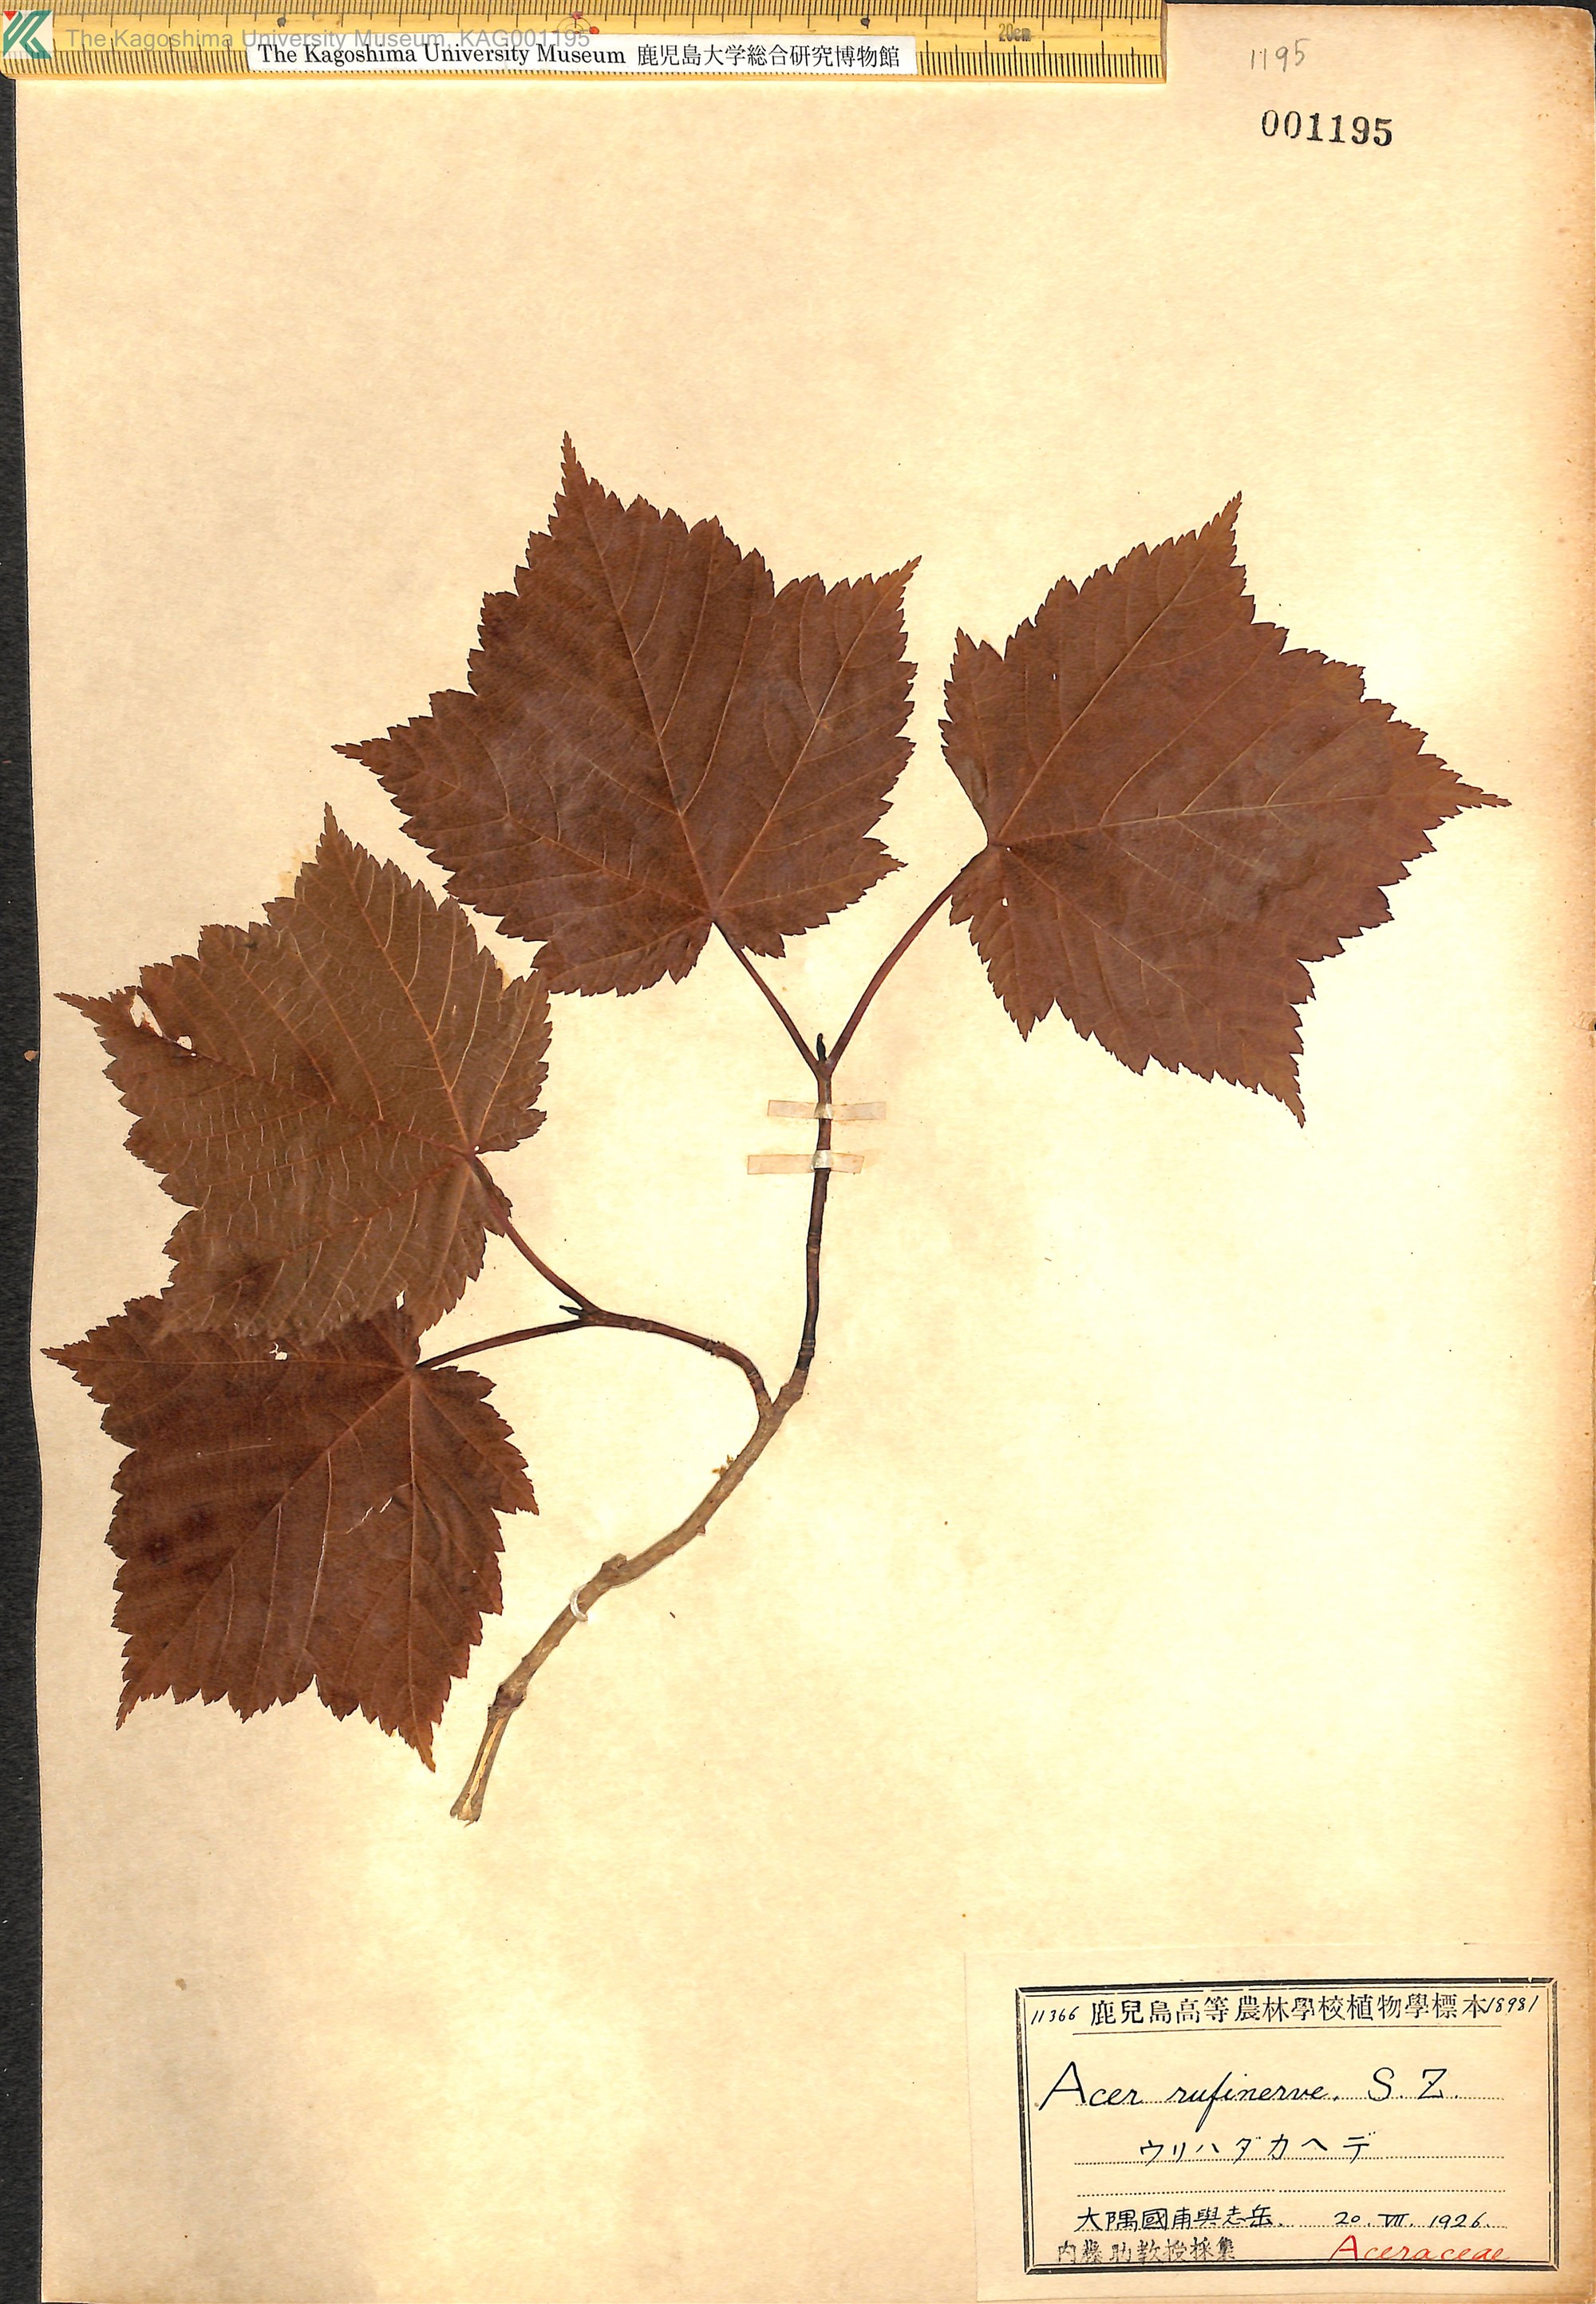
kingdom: Plantae
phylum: Tracheophyta
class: Magnoliopsida
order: Sapindales
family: Sapindaceae
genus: Acer
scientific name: Acer rufinerve
